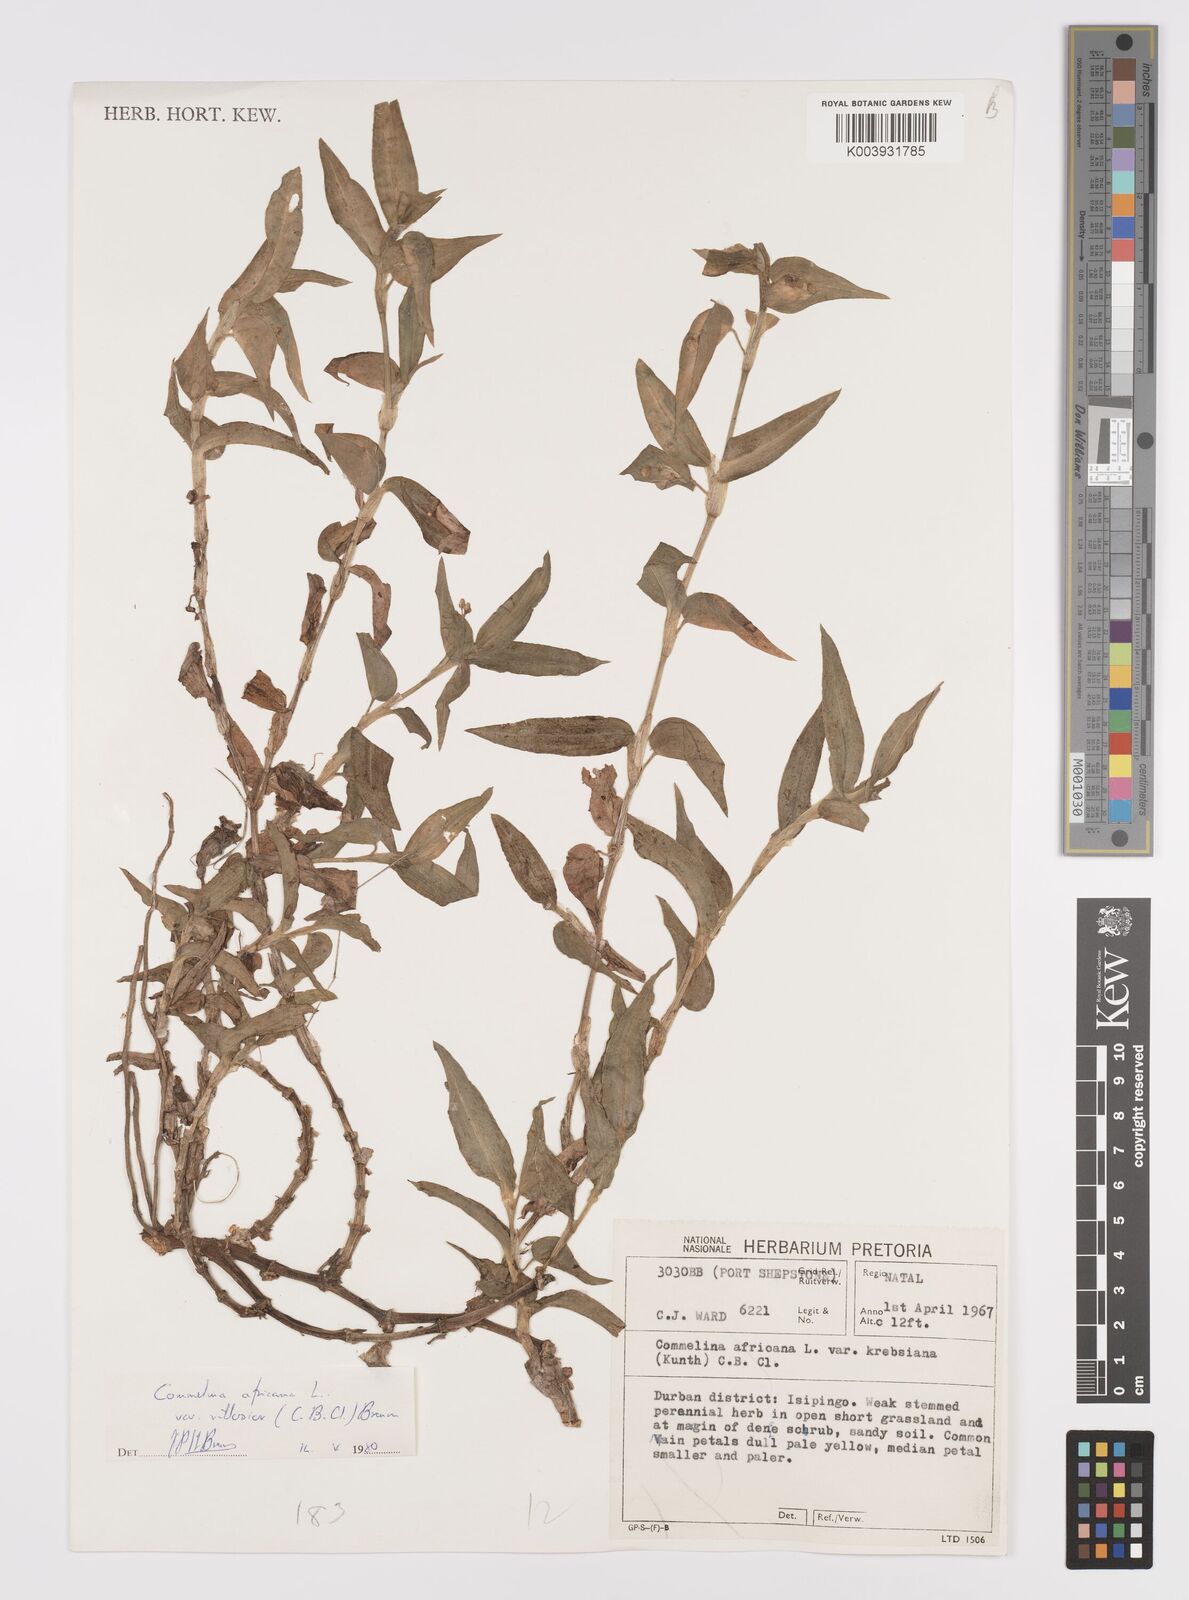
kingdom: Plantae
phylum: Tracheophyta
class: Liliopsida
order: Commelinales
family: Commelinaceae
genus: Commelina
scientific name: Commelina africana
